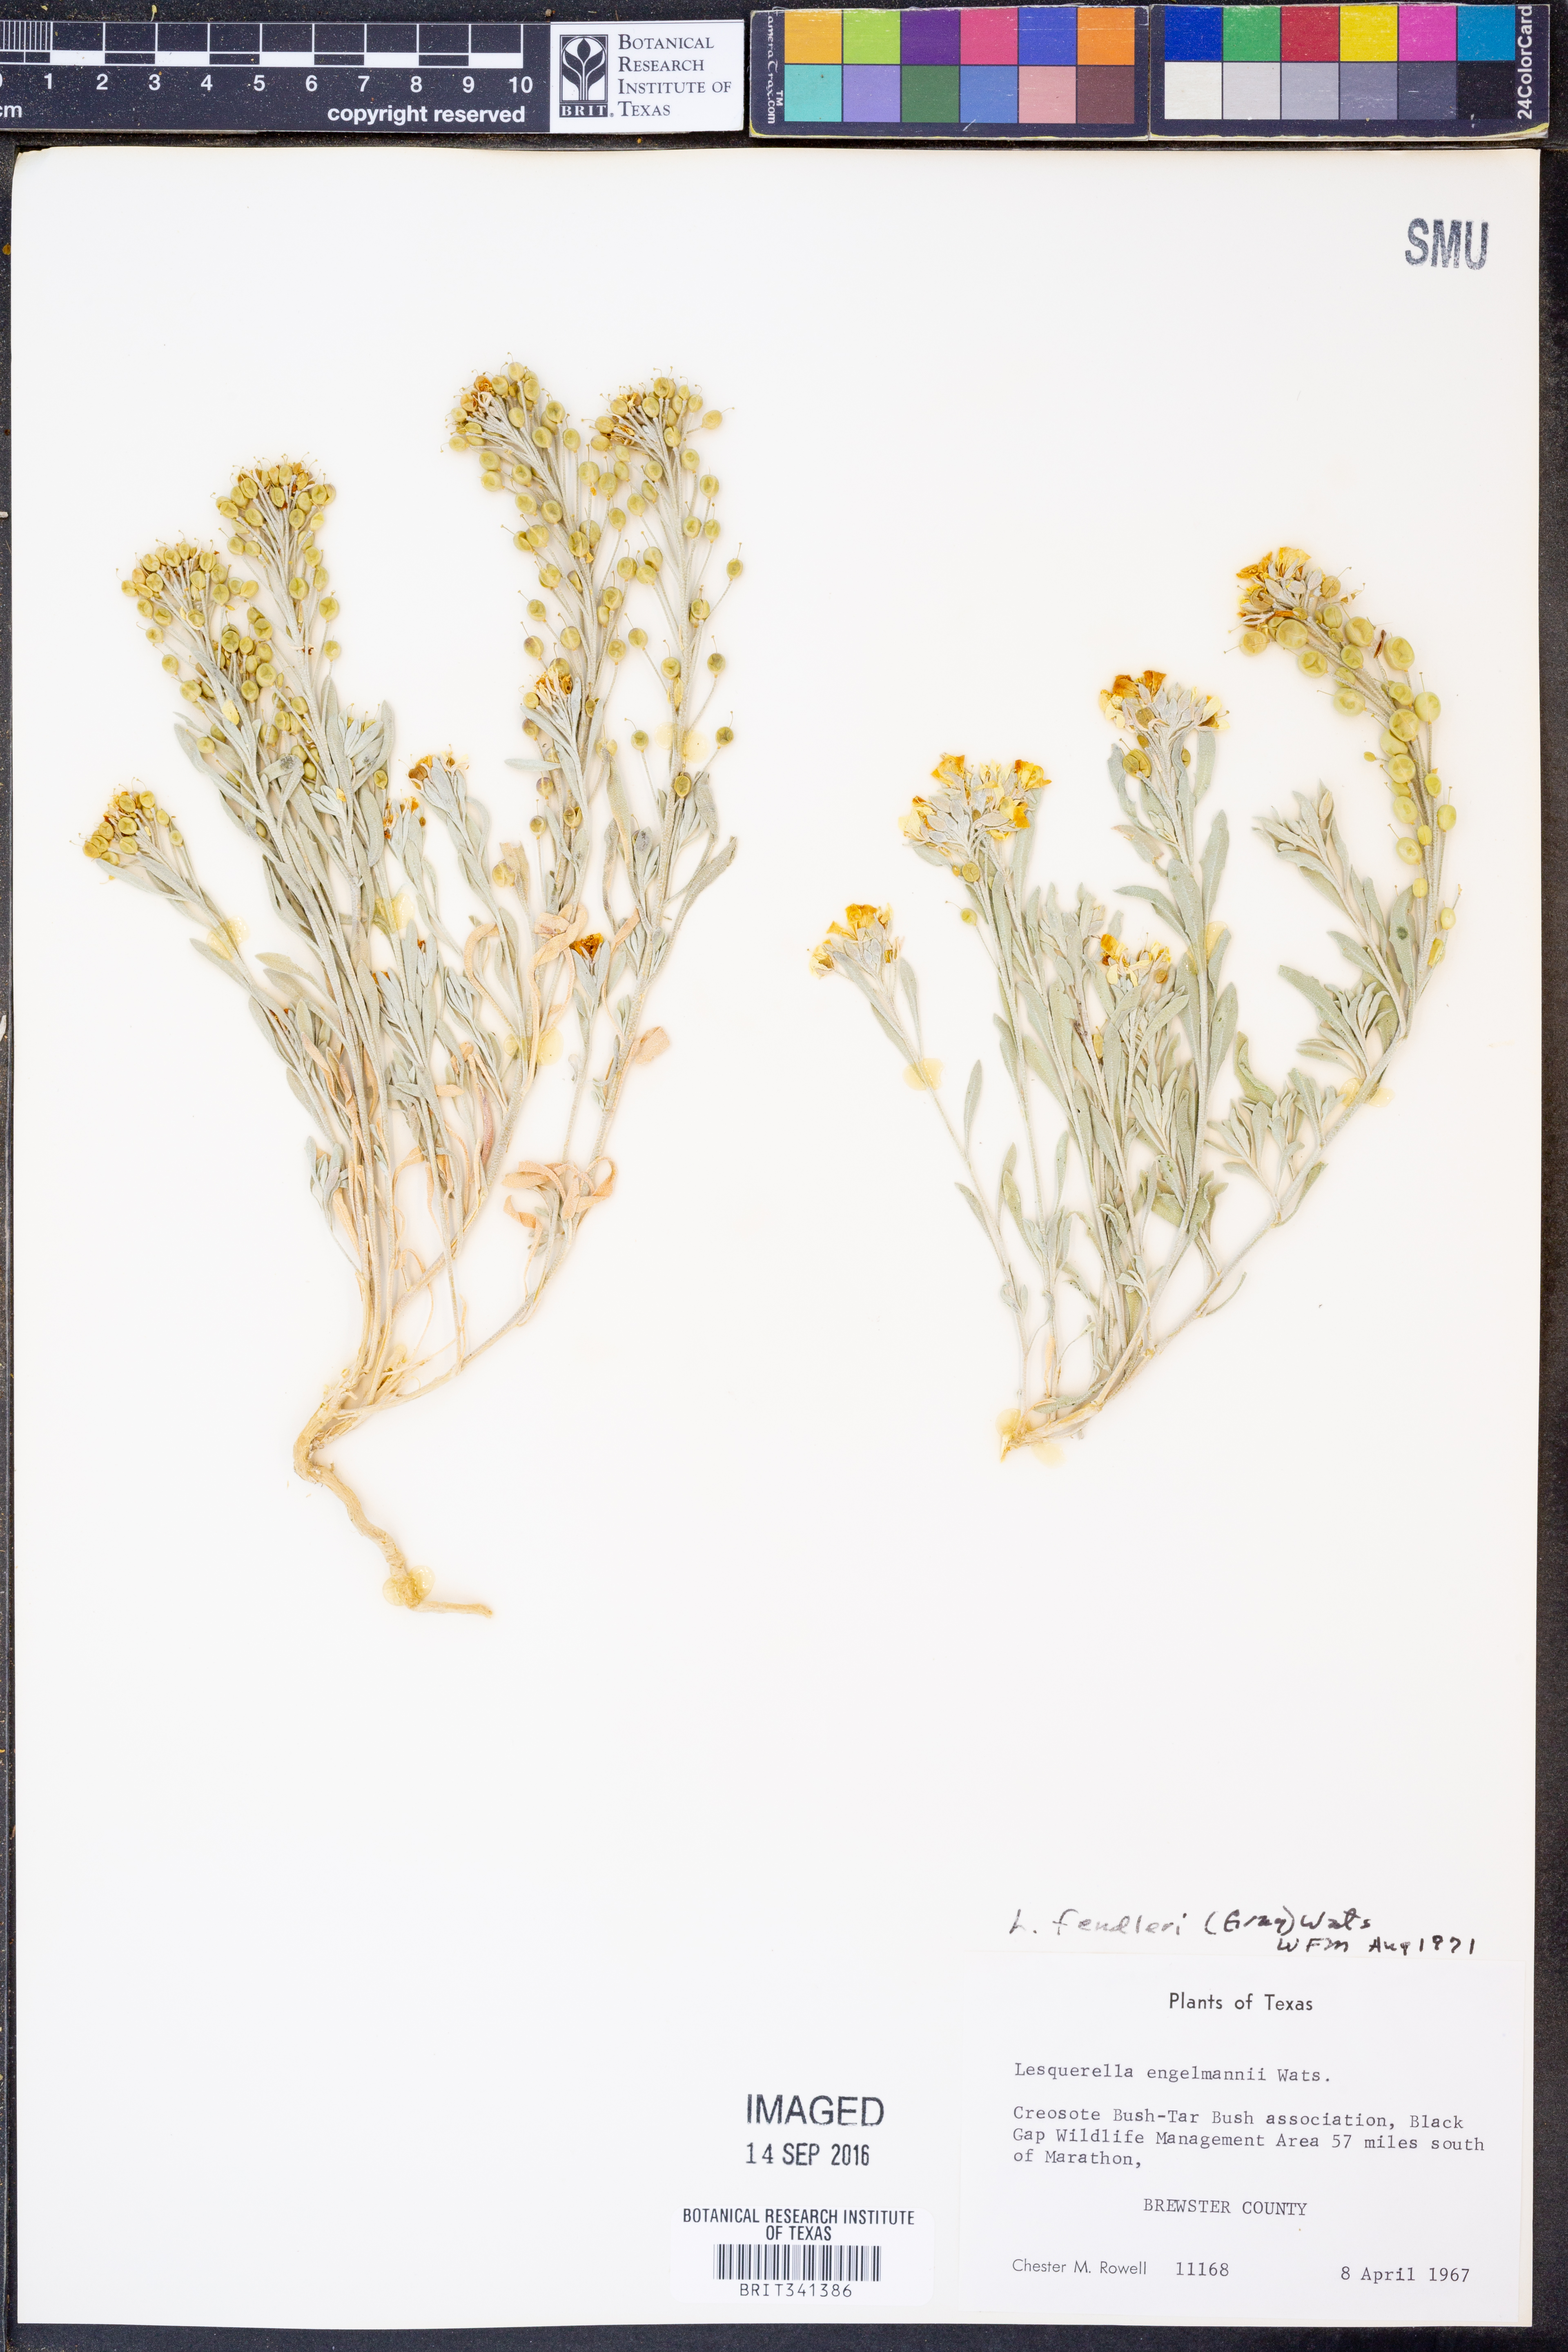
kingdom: Plantae
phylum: Tracheophyta
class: Magnoliopsida
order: Brassicales
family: Brassicaceae
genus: Physaria
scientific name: Physaria fendleri
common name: Fendler's bladderpod
